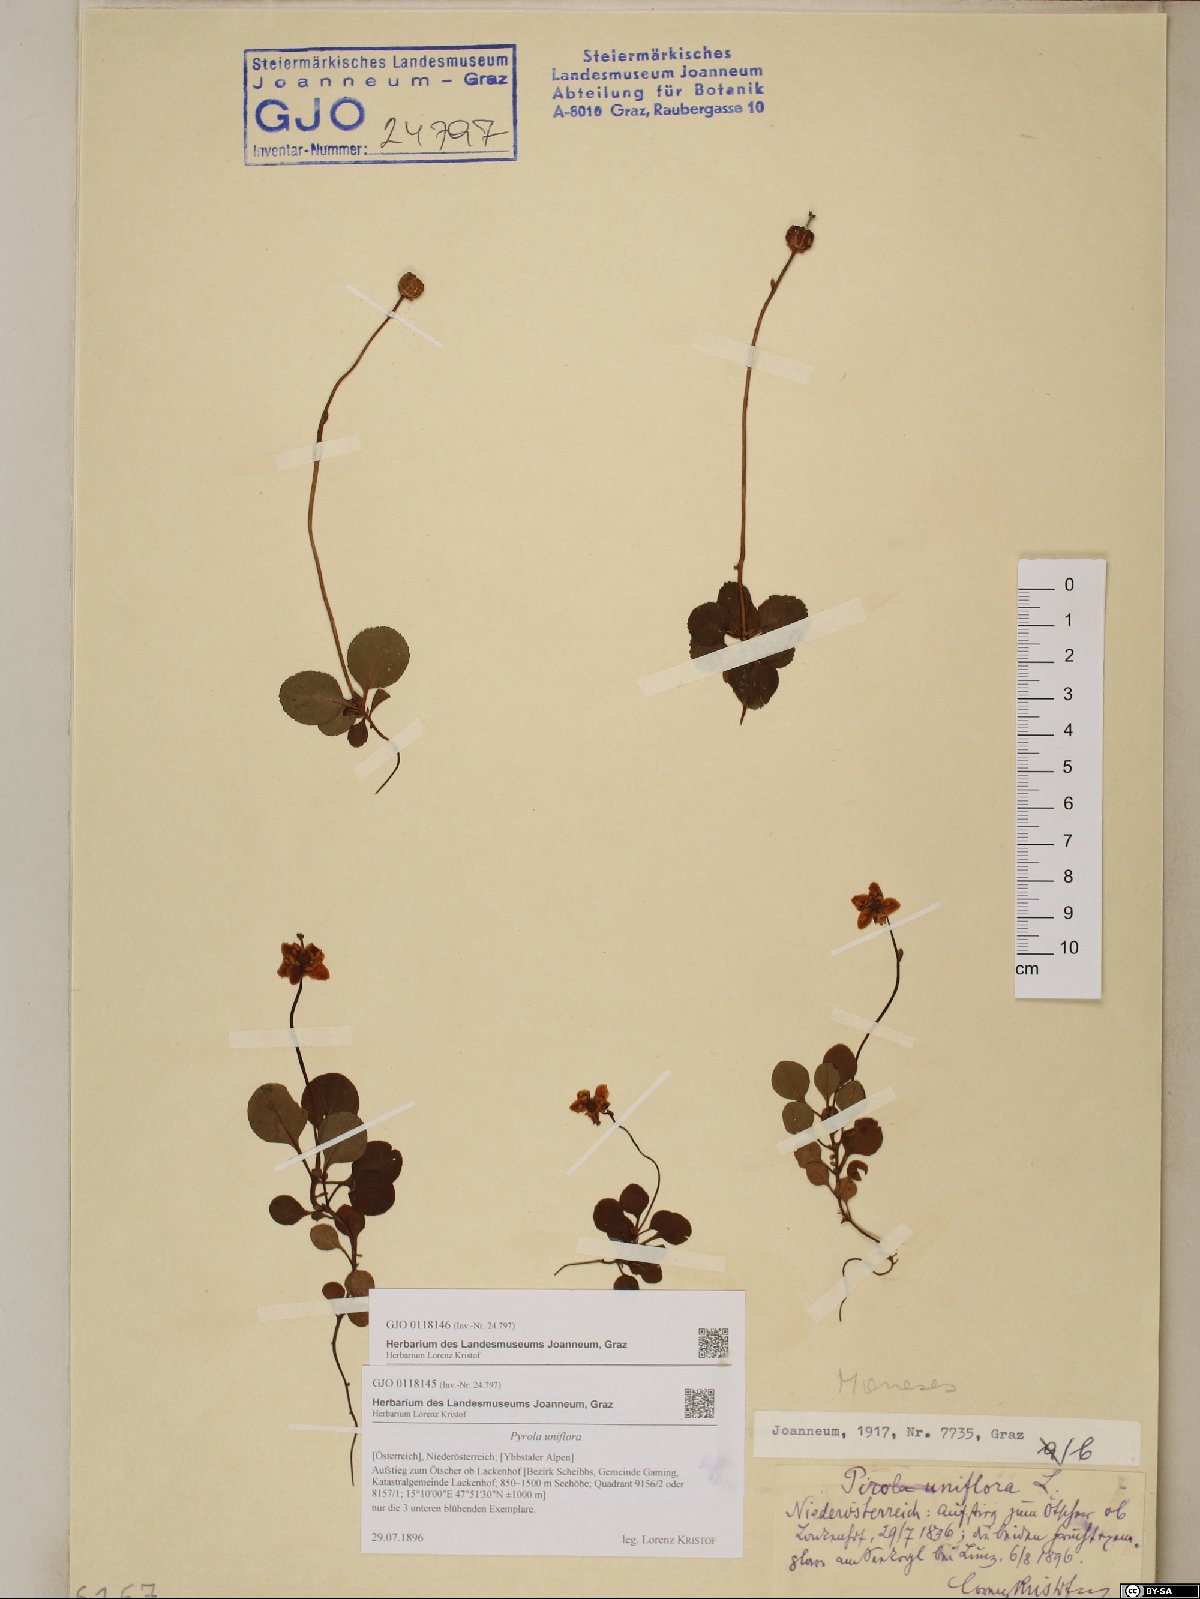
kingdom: Plantae
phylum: Tracheophyta
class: Magnoliopsida
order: Ericales
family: Ericaceae
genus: Moneses
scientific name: Moneses uniflora
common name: One-flowered wintergreen
